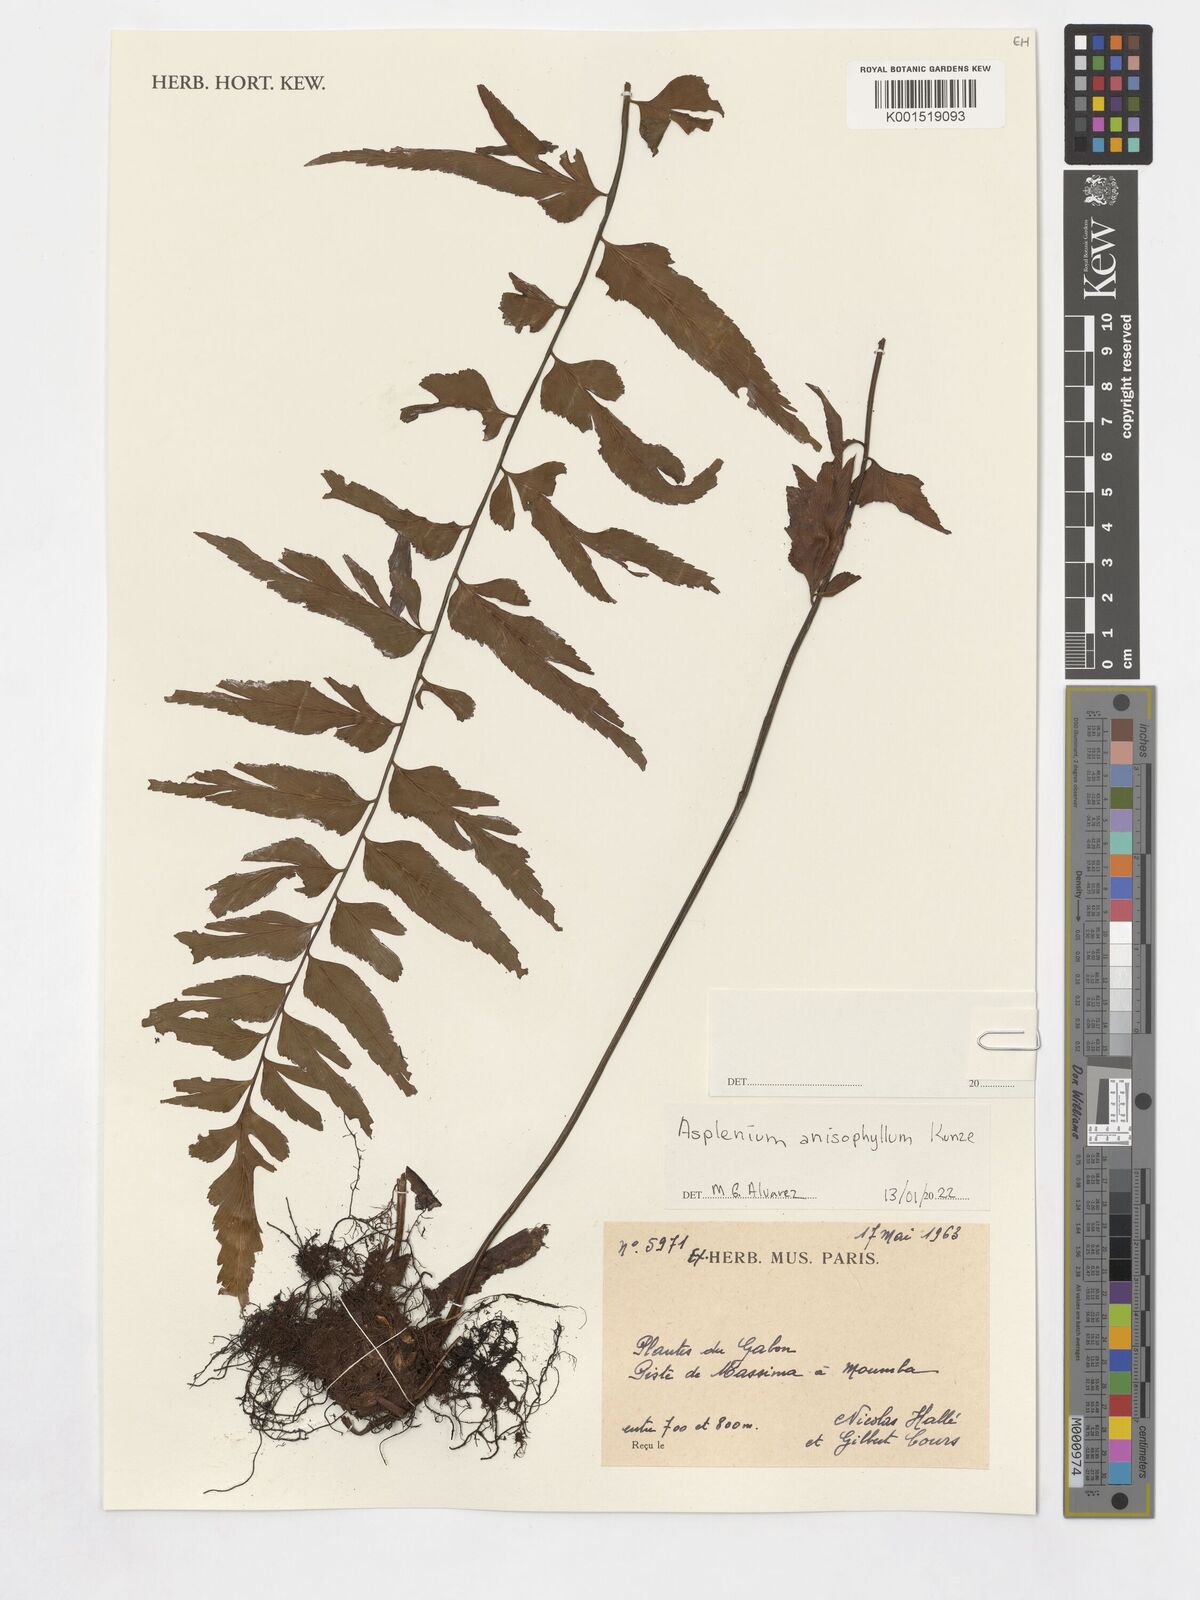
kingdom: Plantae
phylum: Tracheophyta
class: Polypodiopsida
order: Polypodiales
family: Aspleniaceae
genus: Asplenium
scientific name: Asplenium anisophyllum
